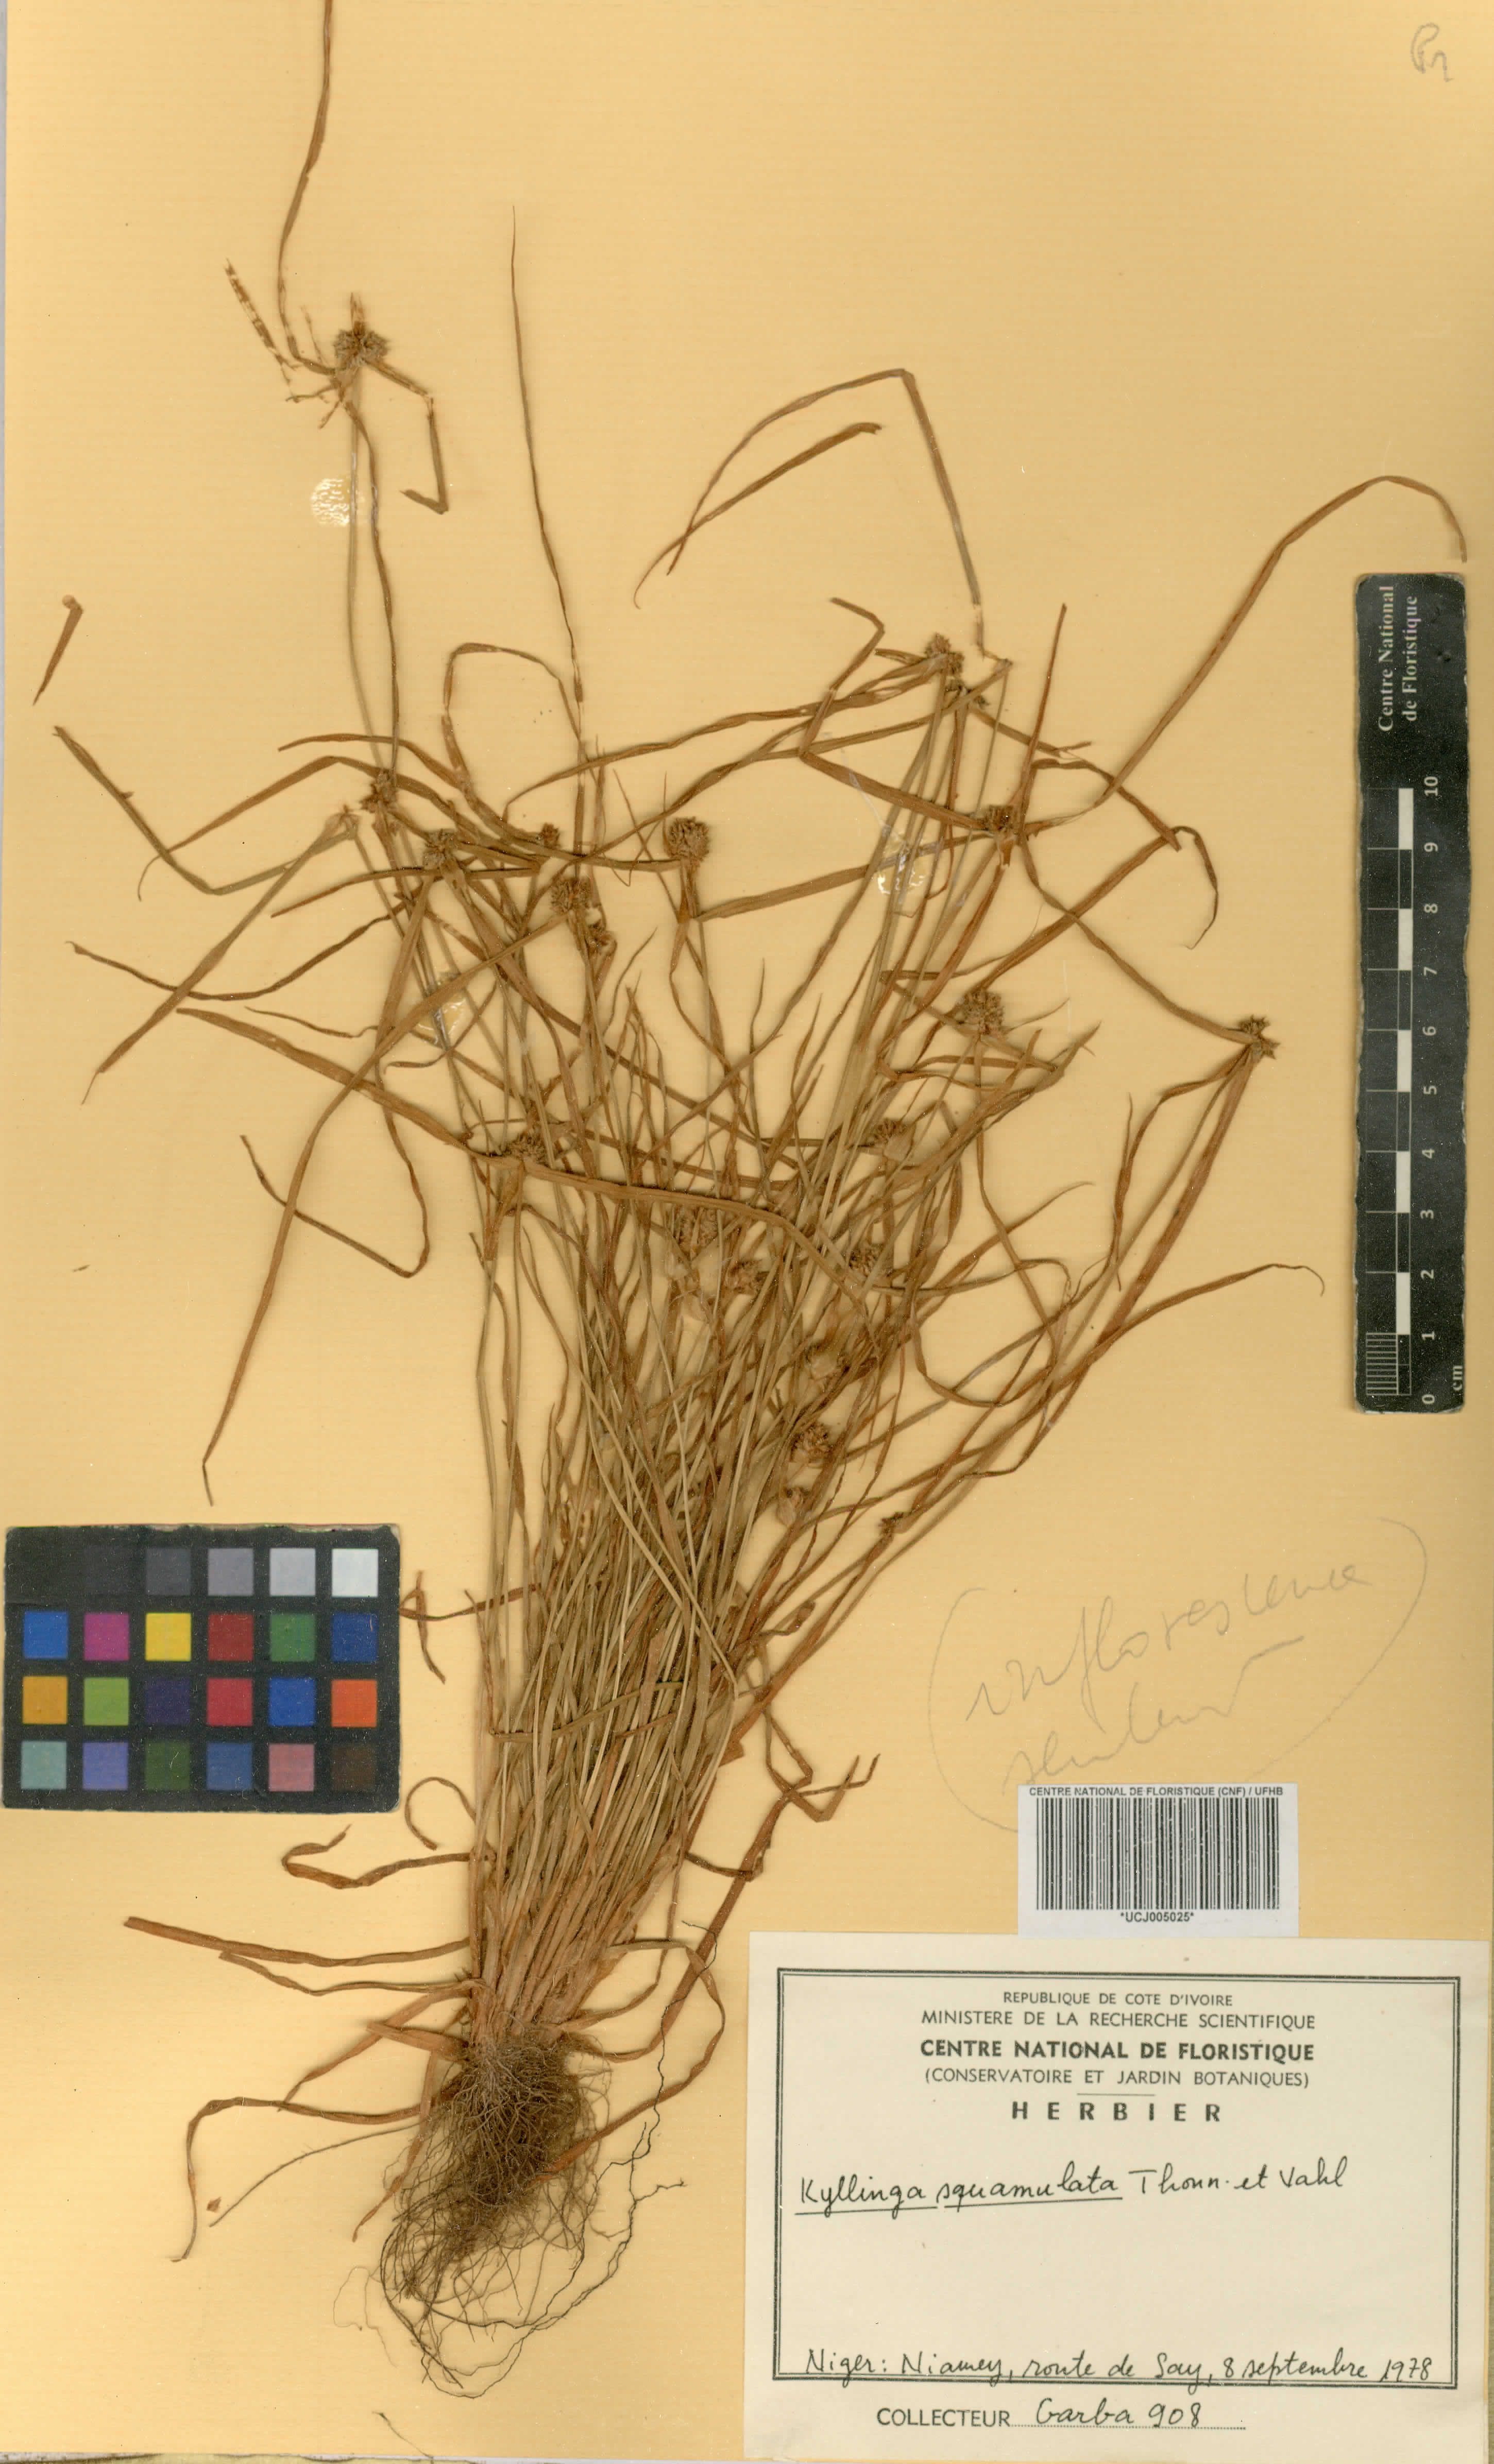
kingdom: Plantae
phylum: Tracheophyta
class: Liliopsida
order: Poales
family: Cyperaceae
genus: Cyperus
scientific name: Cyperus metzii
